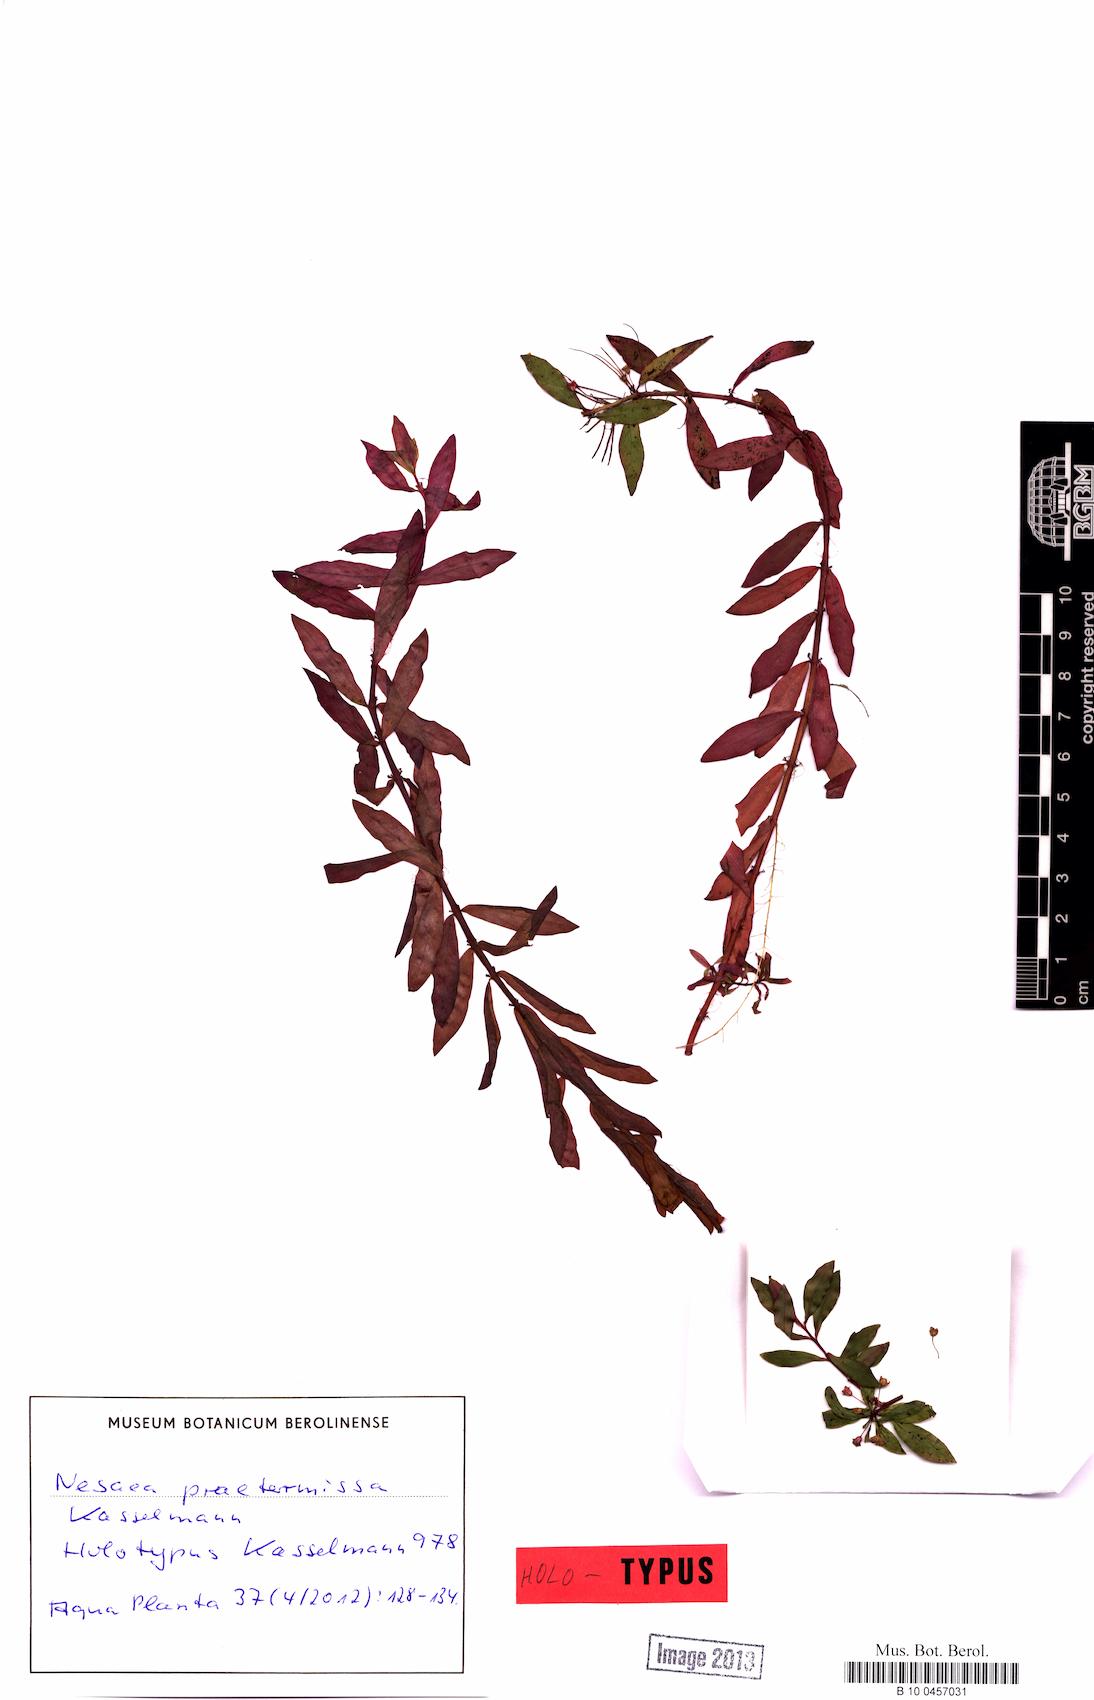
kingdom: Plantae
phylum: Tracheophyta
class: Magnoliopsida
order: Myrtales
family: Lythraceae
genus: Ammannia
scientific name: Ammannia praetermissa
